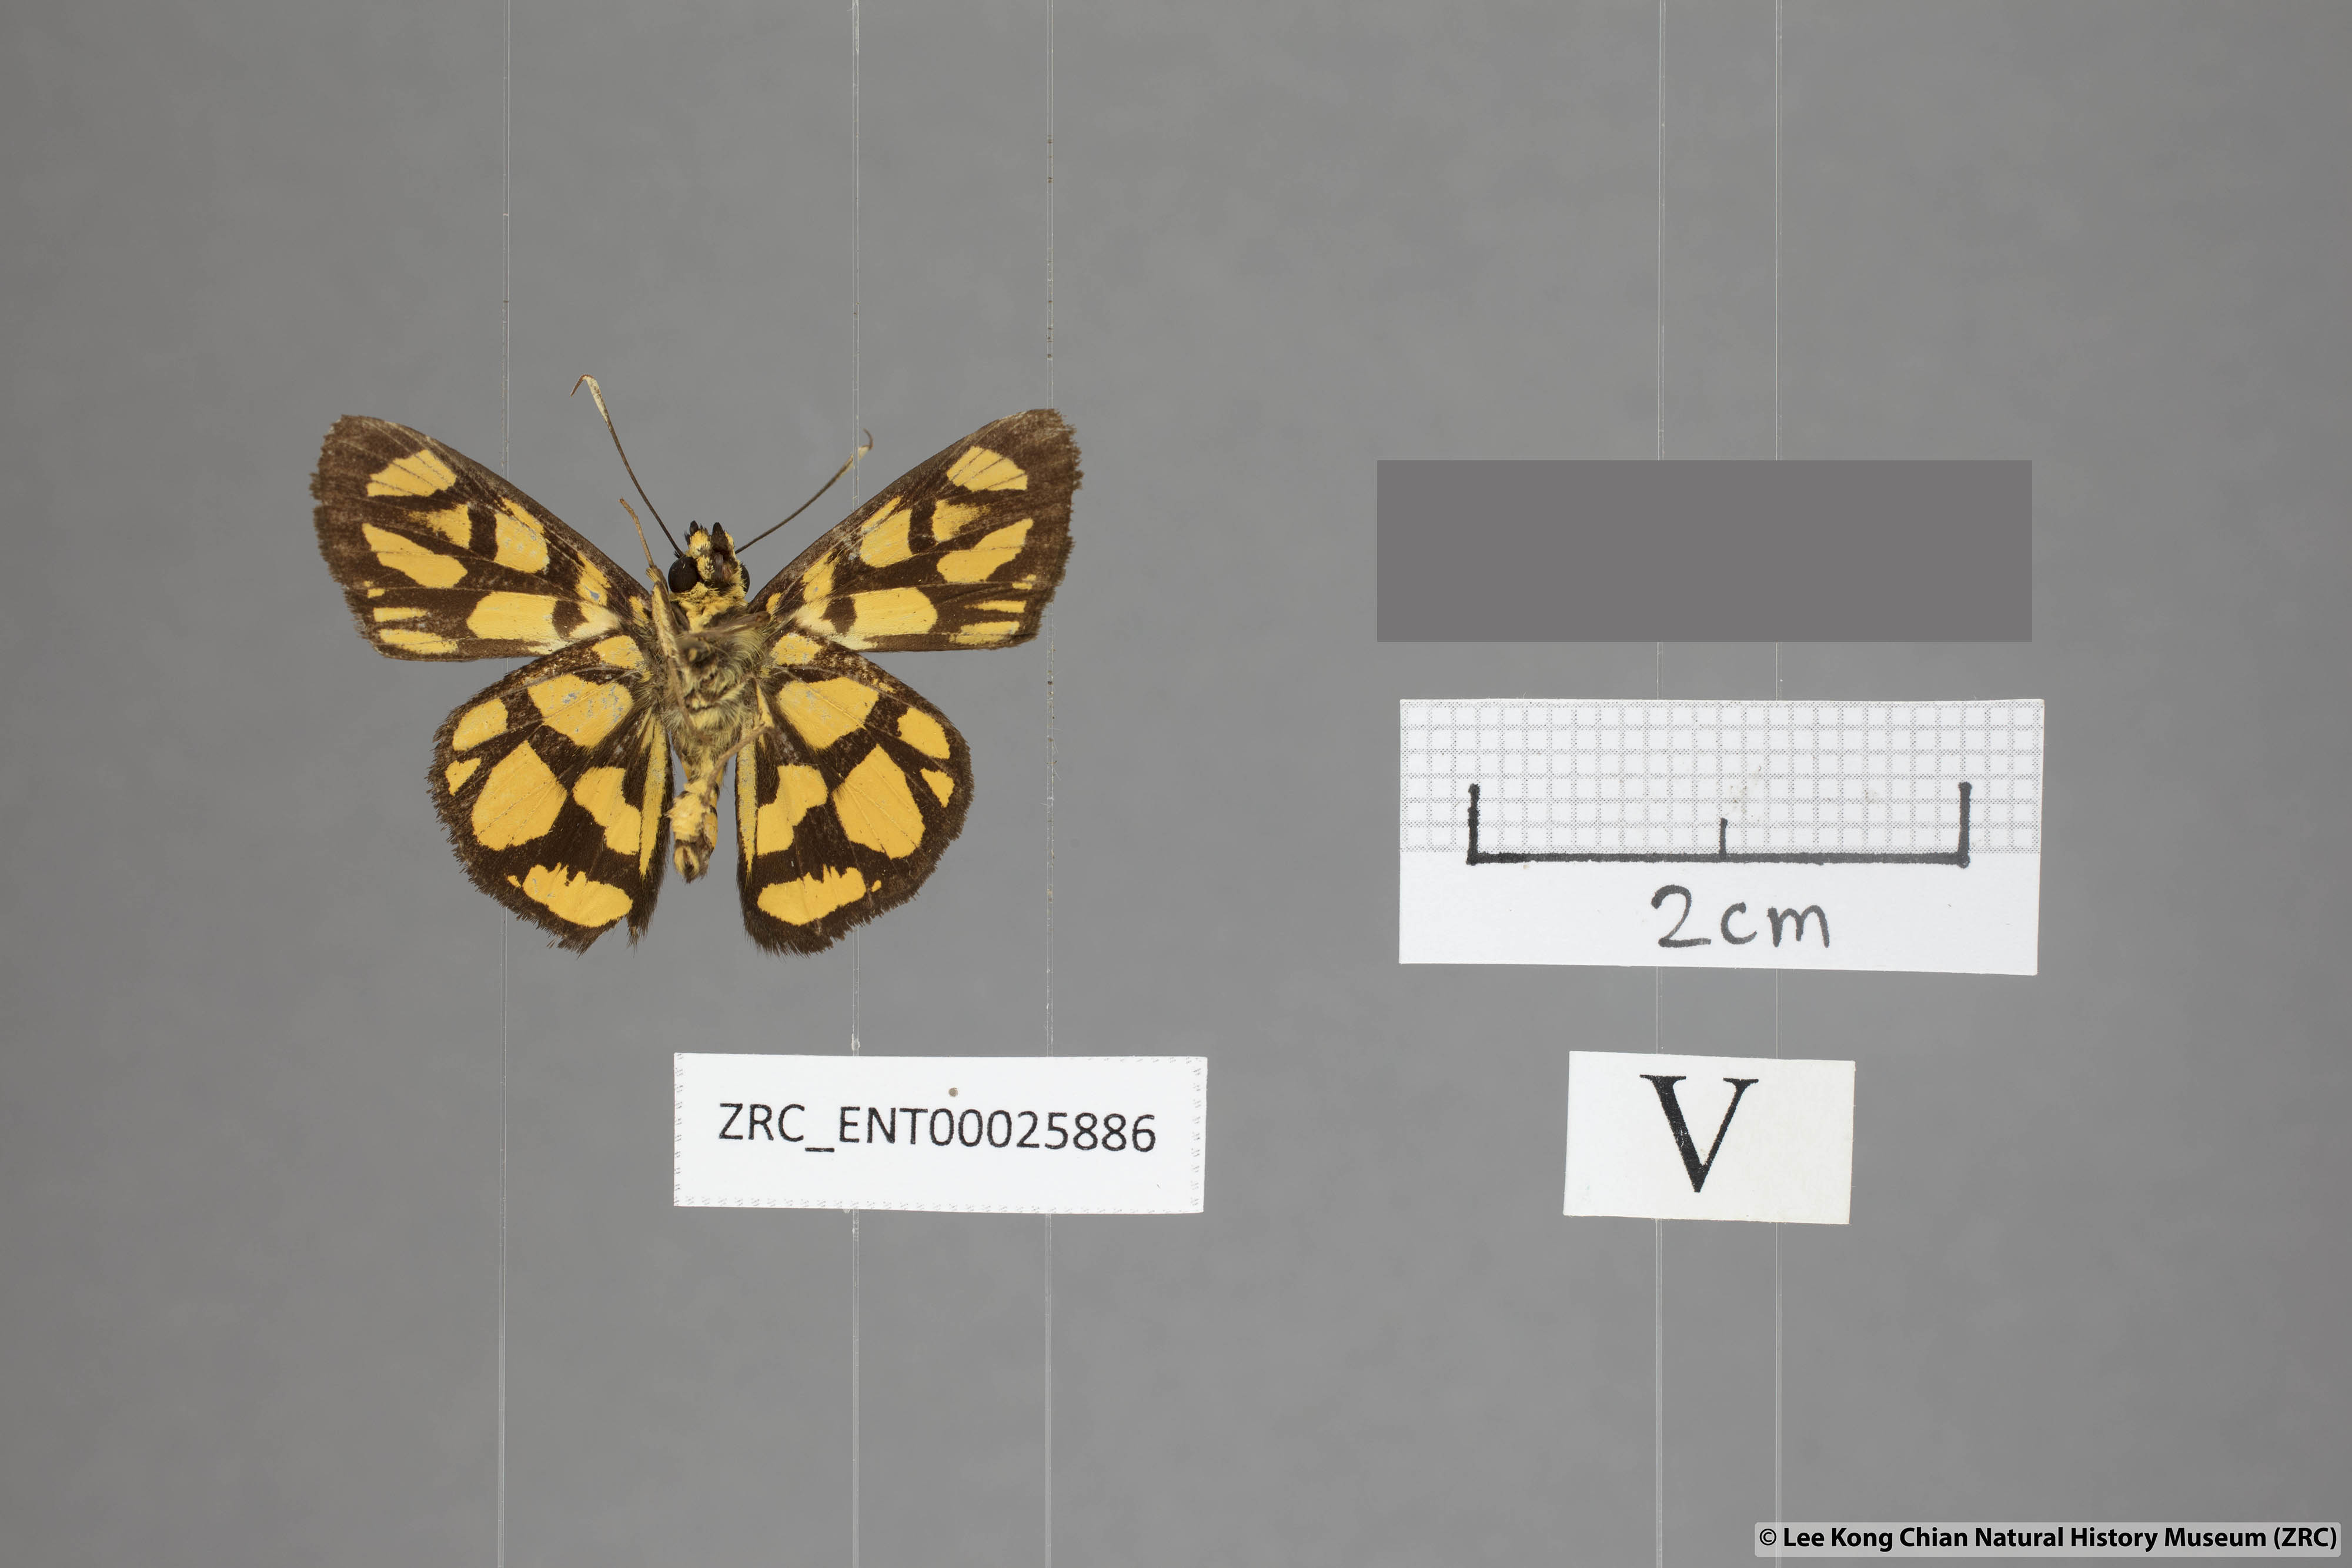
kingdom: Animalia
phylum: Arthropoda
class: Insecta
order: Lepidoptera
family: Hesperiidae
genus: Odina
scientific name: Odina hieroglyphica
